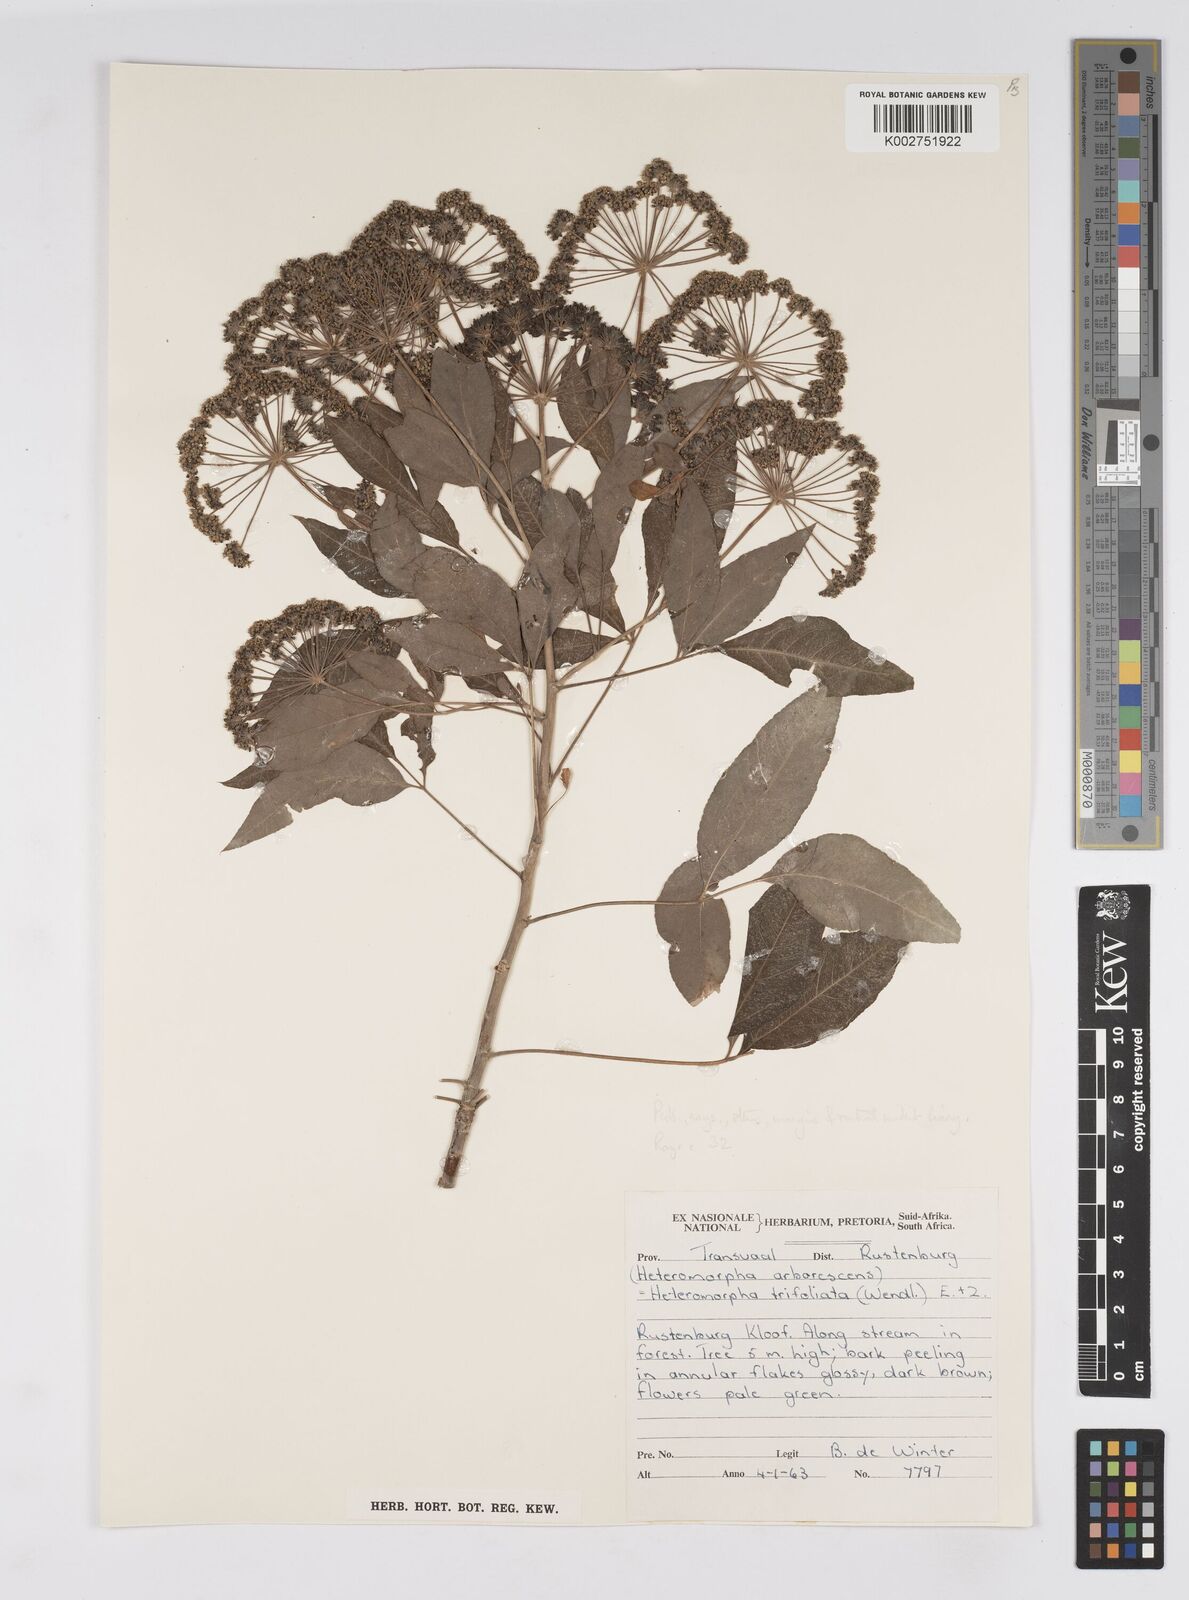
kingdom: Plantae
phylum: Tracheophyta
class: Magnoliopsida
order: Apiales
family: Apiaceae
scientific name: Apiaceae
